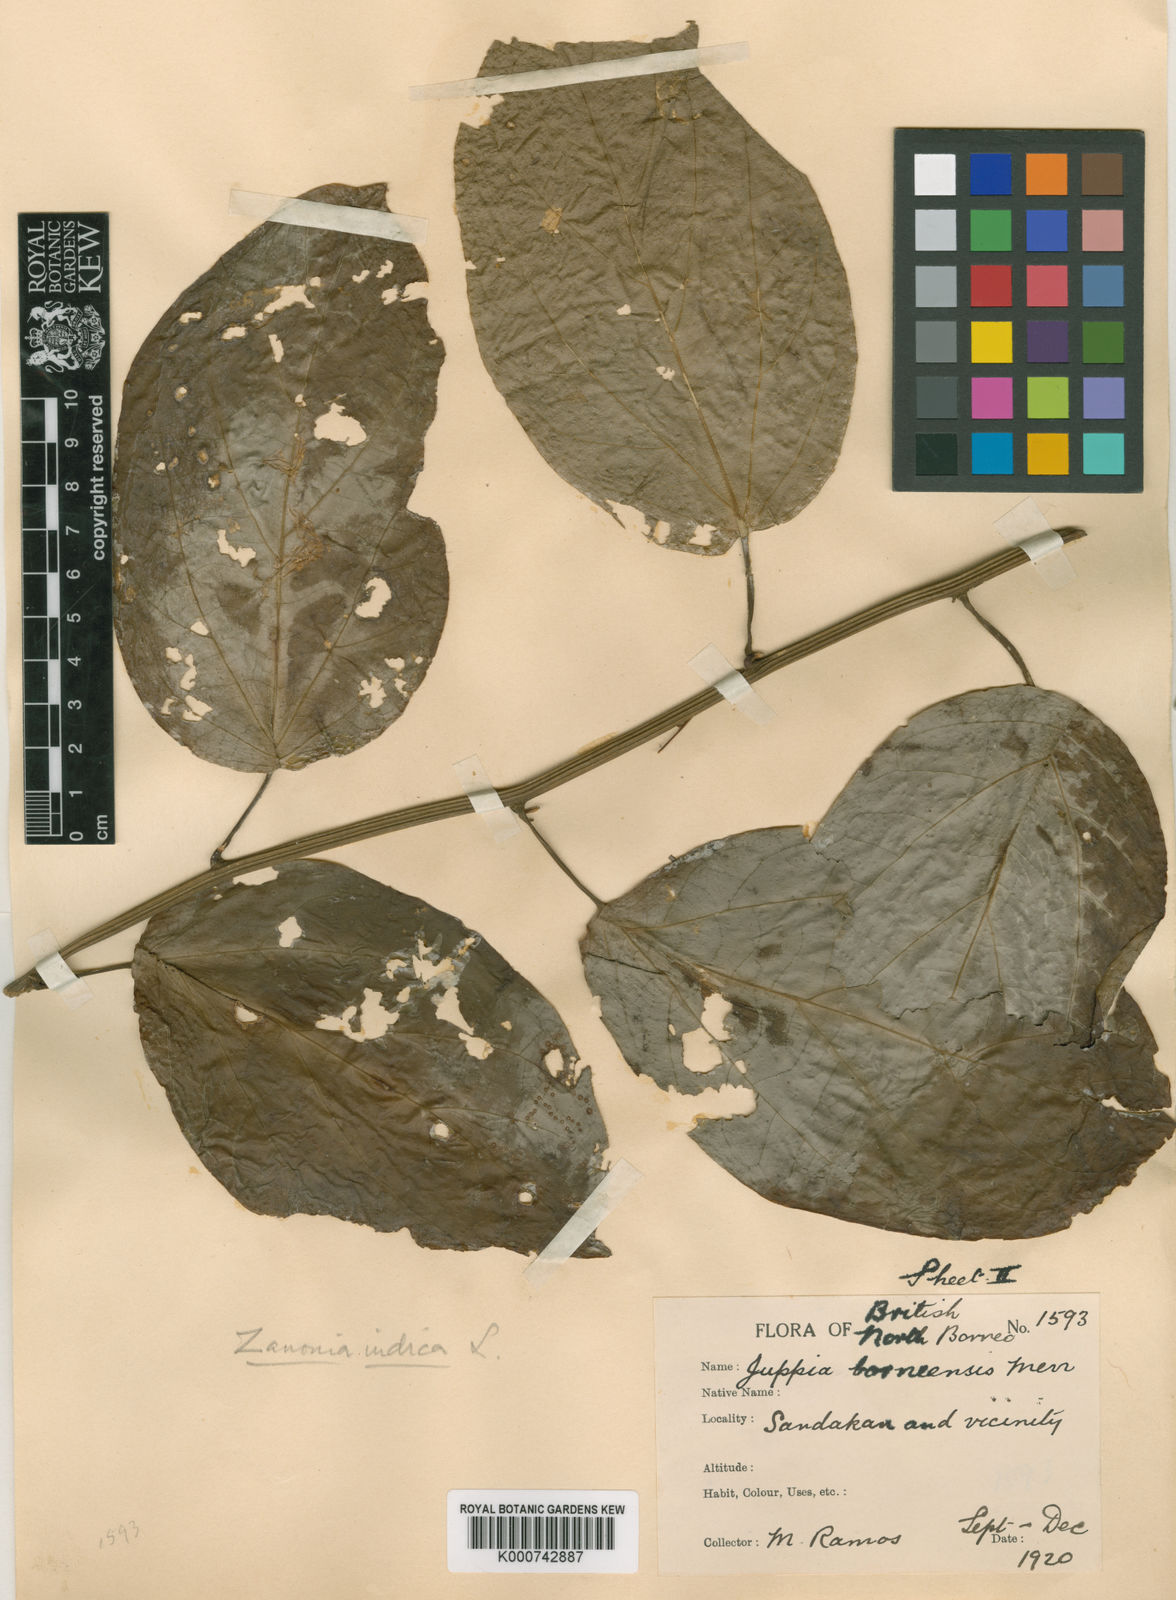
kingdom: Plantae
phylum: Tracheophyta
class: Magnoliopsida
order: Cucurbitales
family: Cucurbitaceae
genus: Zanonia
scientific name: Zanonia indica
